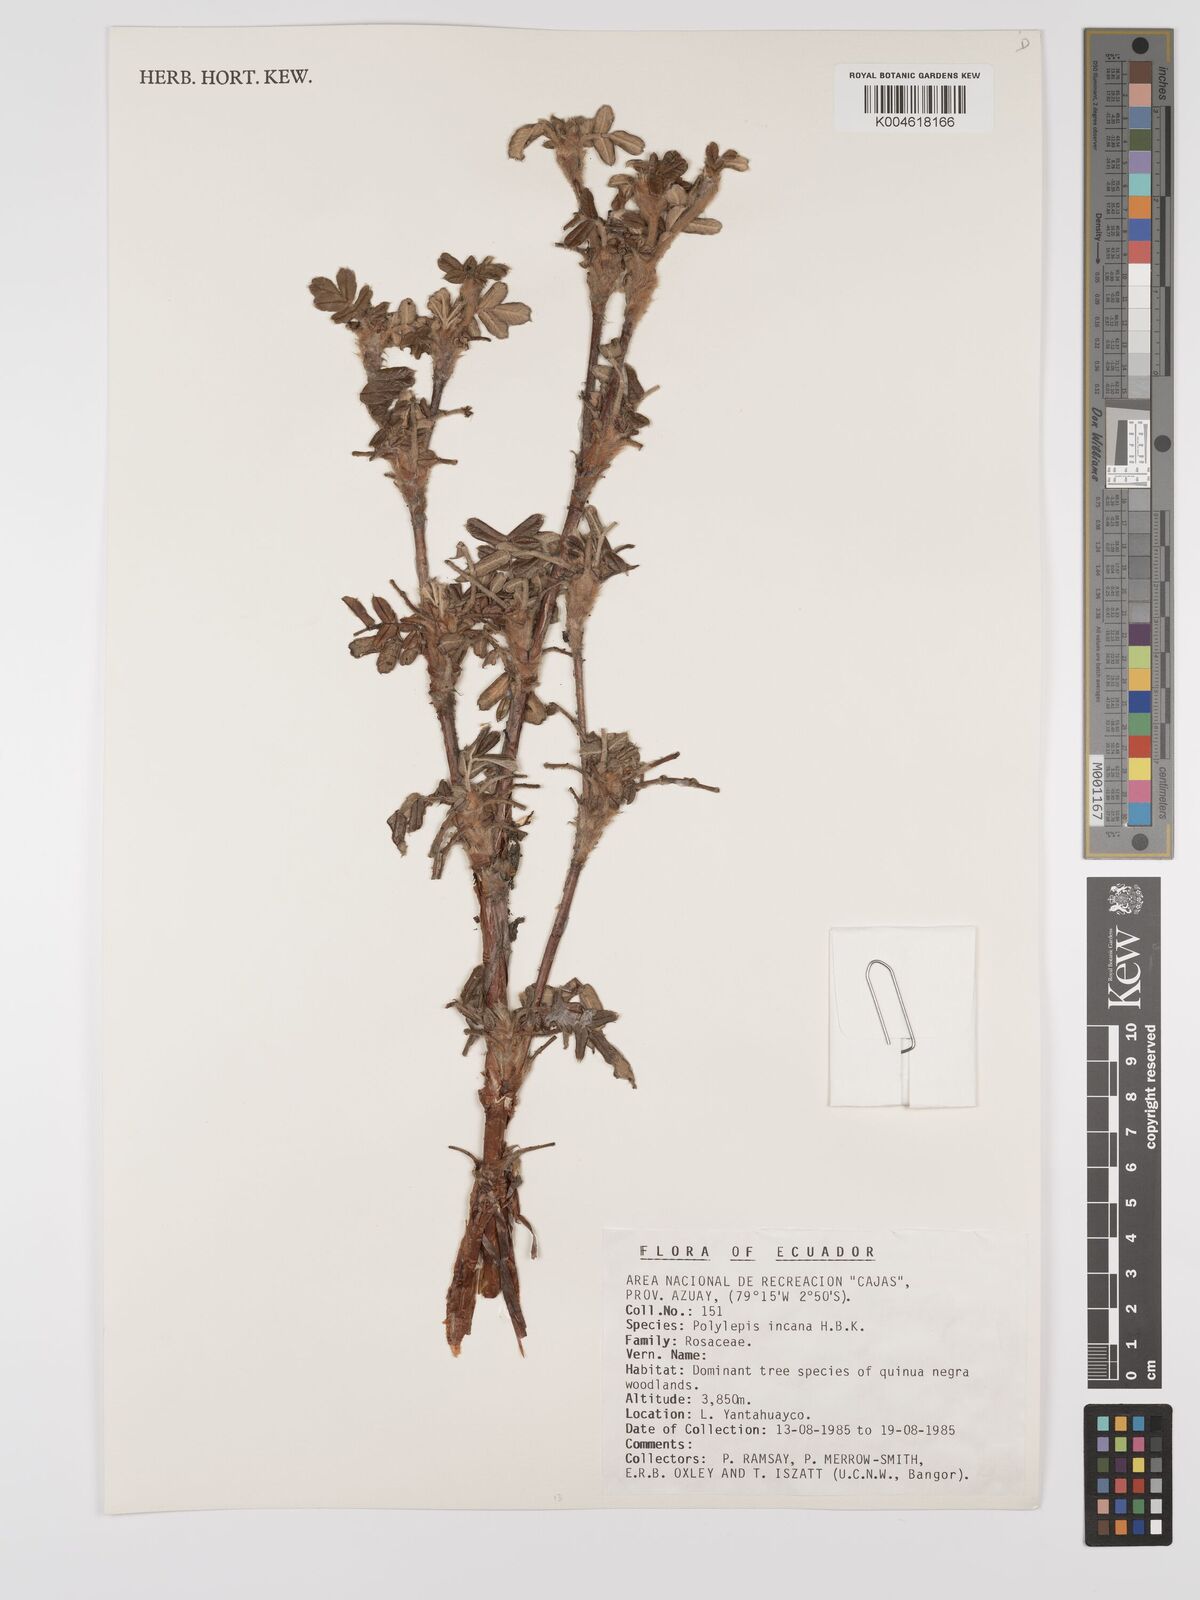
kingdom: Plantae
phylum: Tracheophyta
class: Magnoliopsida
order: Rosales
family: Rosaceae
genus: Polylepis
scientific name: Polylepis incana
